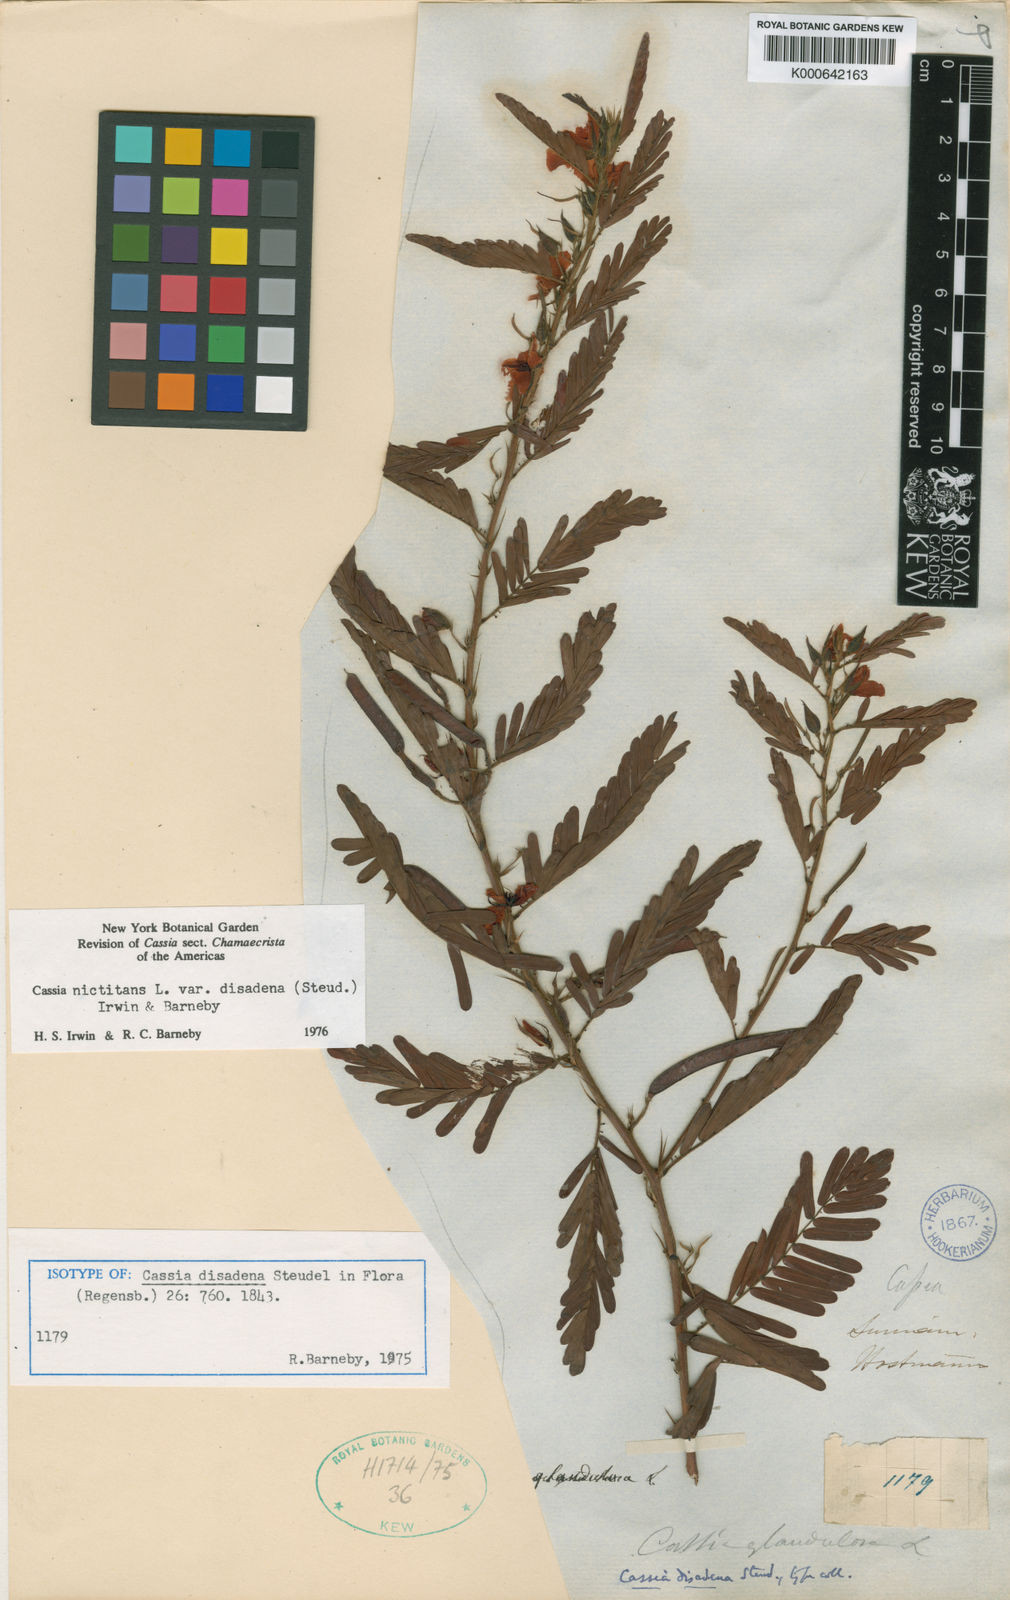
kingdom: Plantae
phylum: Tracheophyta
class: Magnoliopsida
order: Fabales
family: Fabaceae
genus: Chamaecrista
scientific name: Chamaecrista nictitans
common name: Sensitive cassia
